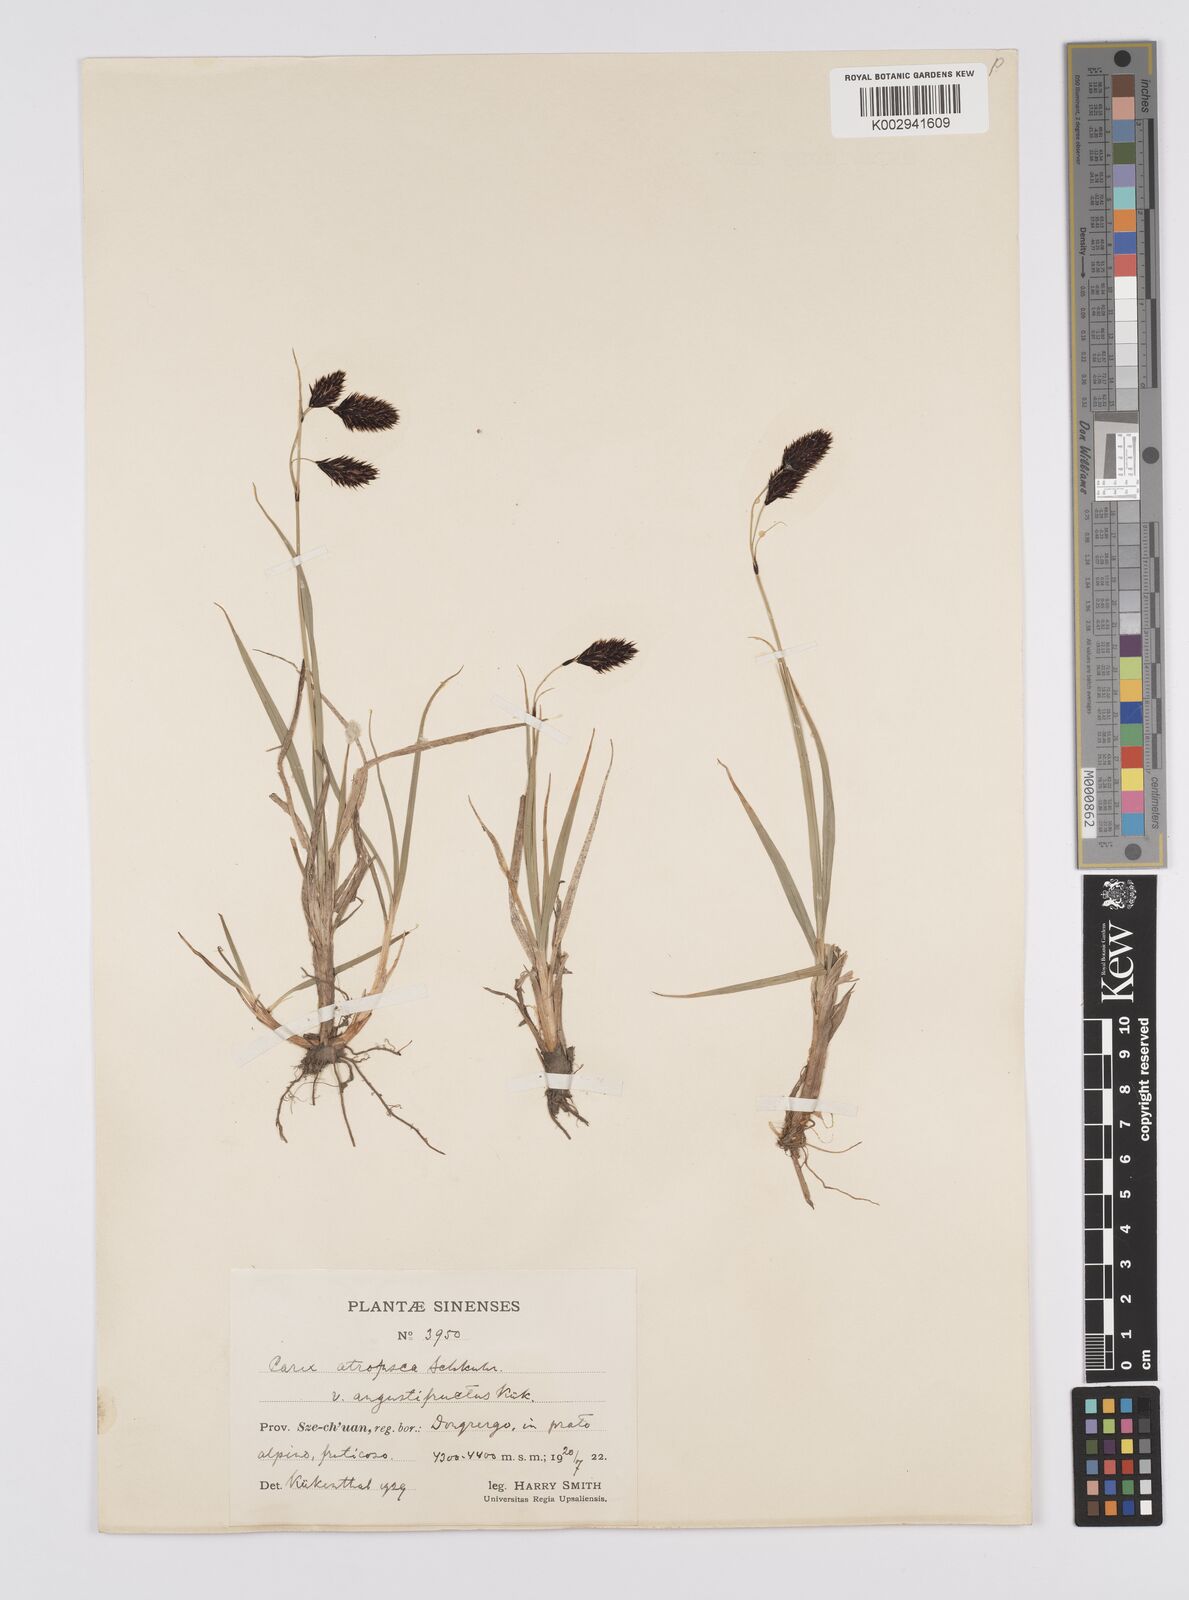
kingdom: Plantae
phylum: Tracheophyta
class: Liliopsida
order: Poales
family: Cyperaceae
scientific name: Cyperaceae
